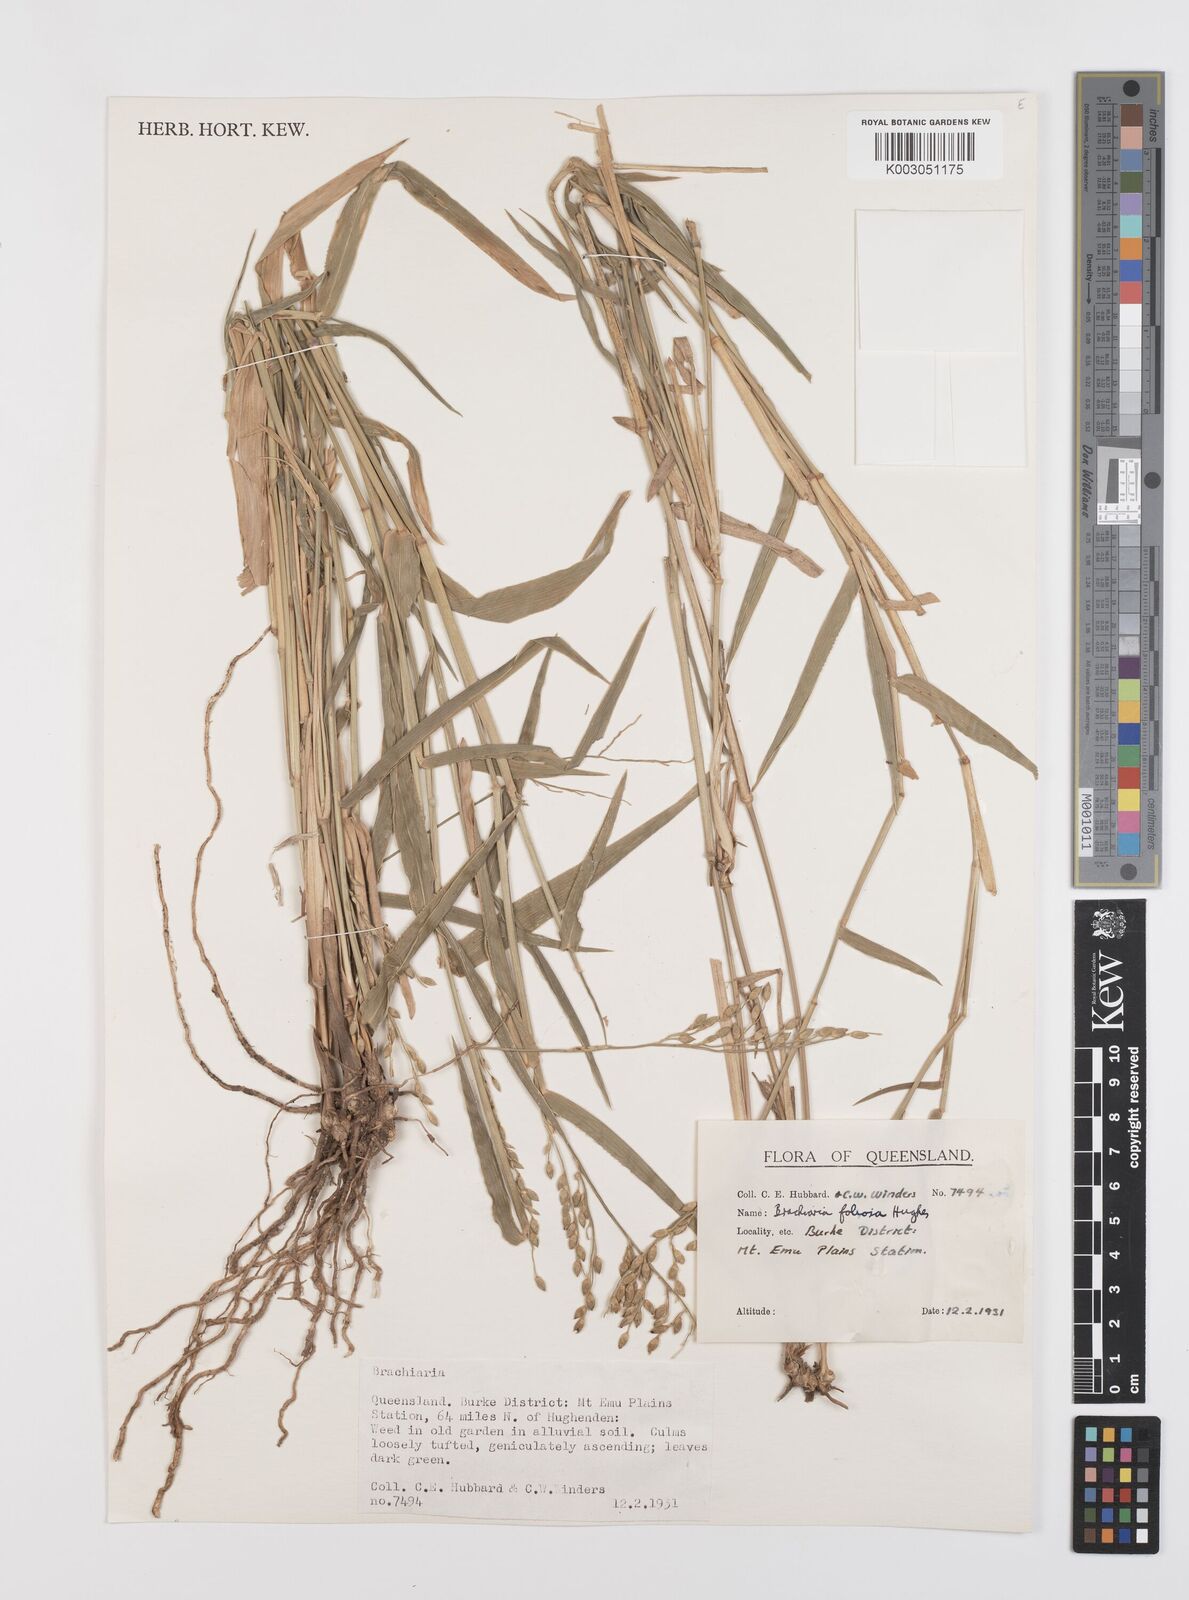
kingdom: Plantae
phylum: Tracheophyta
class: Liliopsida
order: Poales
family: Poaceae
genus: Urochloa
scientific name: Urochloa foliosa
